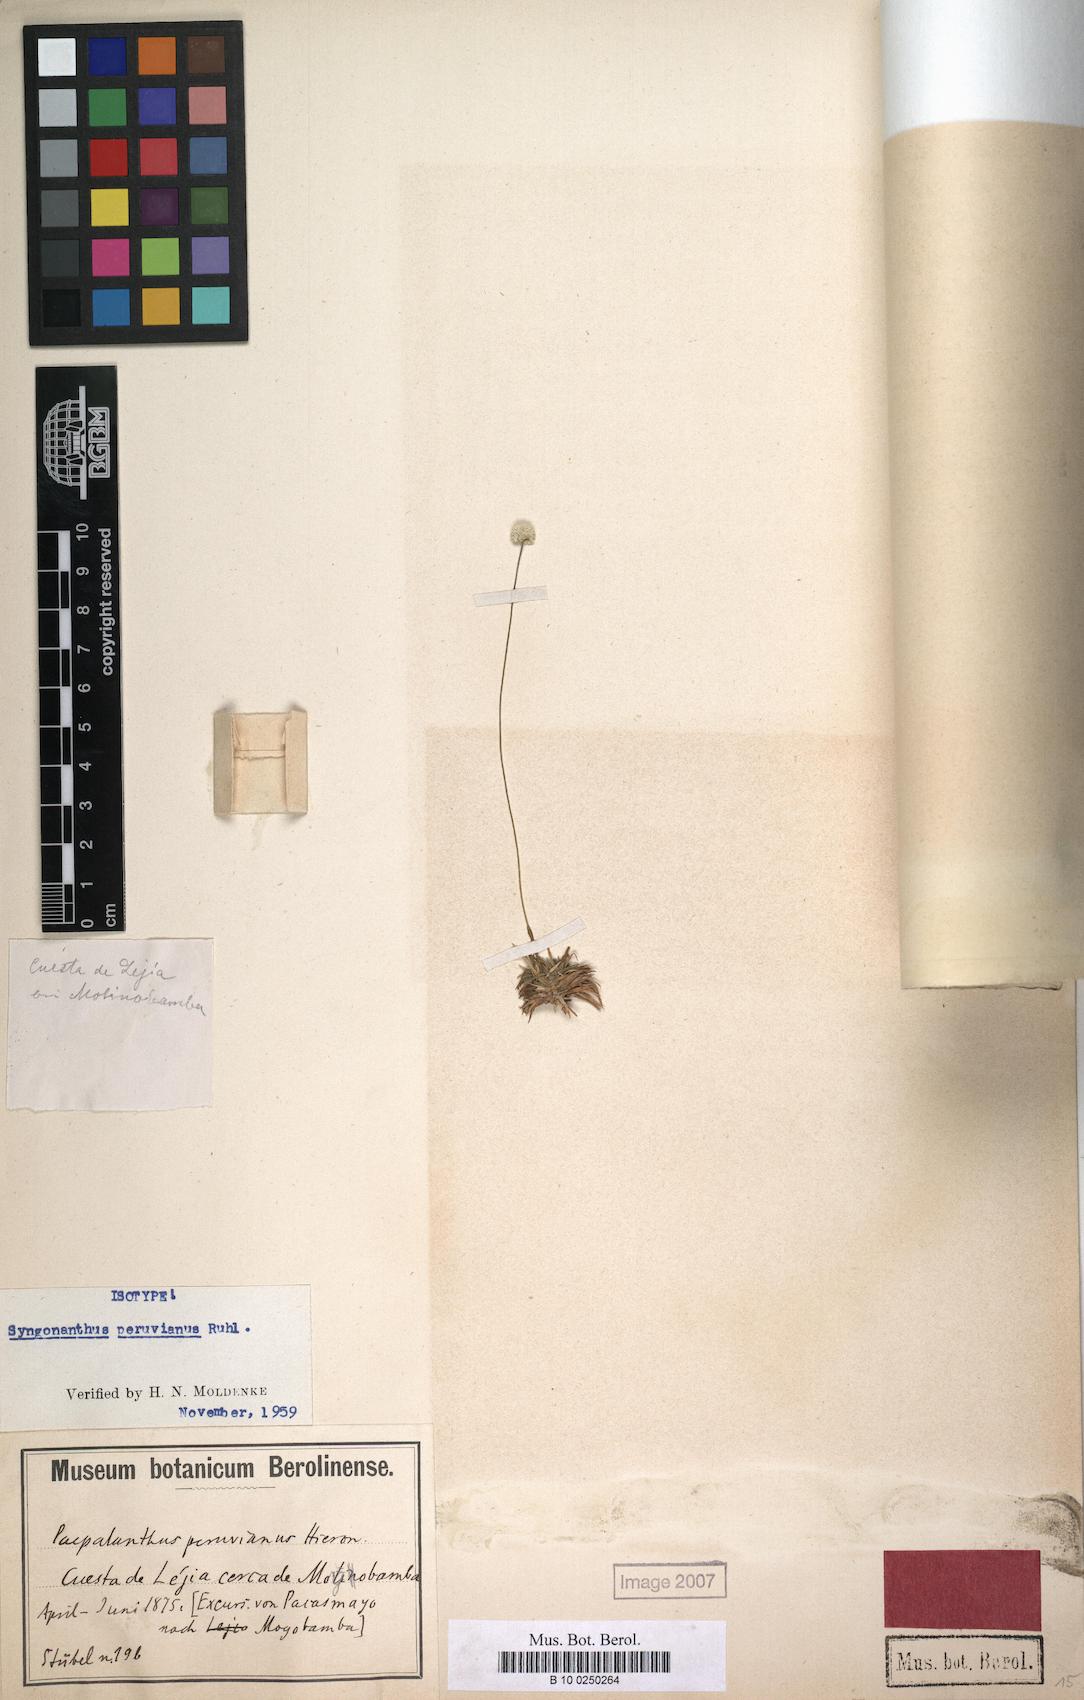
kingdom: Plantae
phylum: Tracheophyta
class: Liliopsida
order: Poales
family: Eriocaulaceae
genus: Syngonanthus
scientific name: Syngonanthus peruvianus
